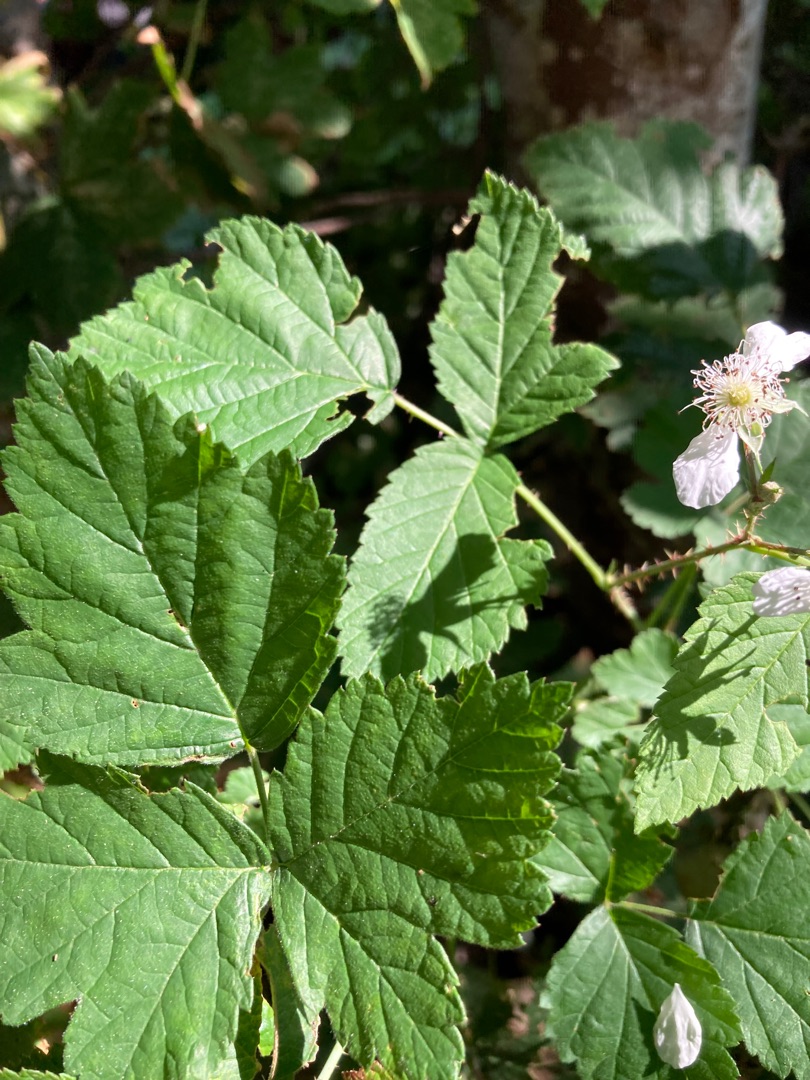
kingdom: Plantae
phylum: Tracheophyta
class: Magnoliopsida
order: Rosales
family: Rosaceae
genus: Rubus
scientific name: Rubus caesius
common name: Korbær
